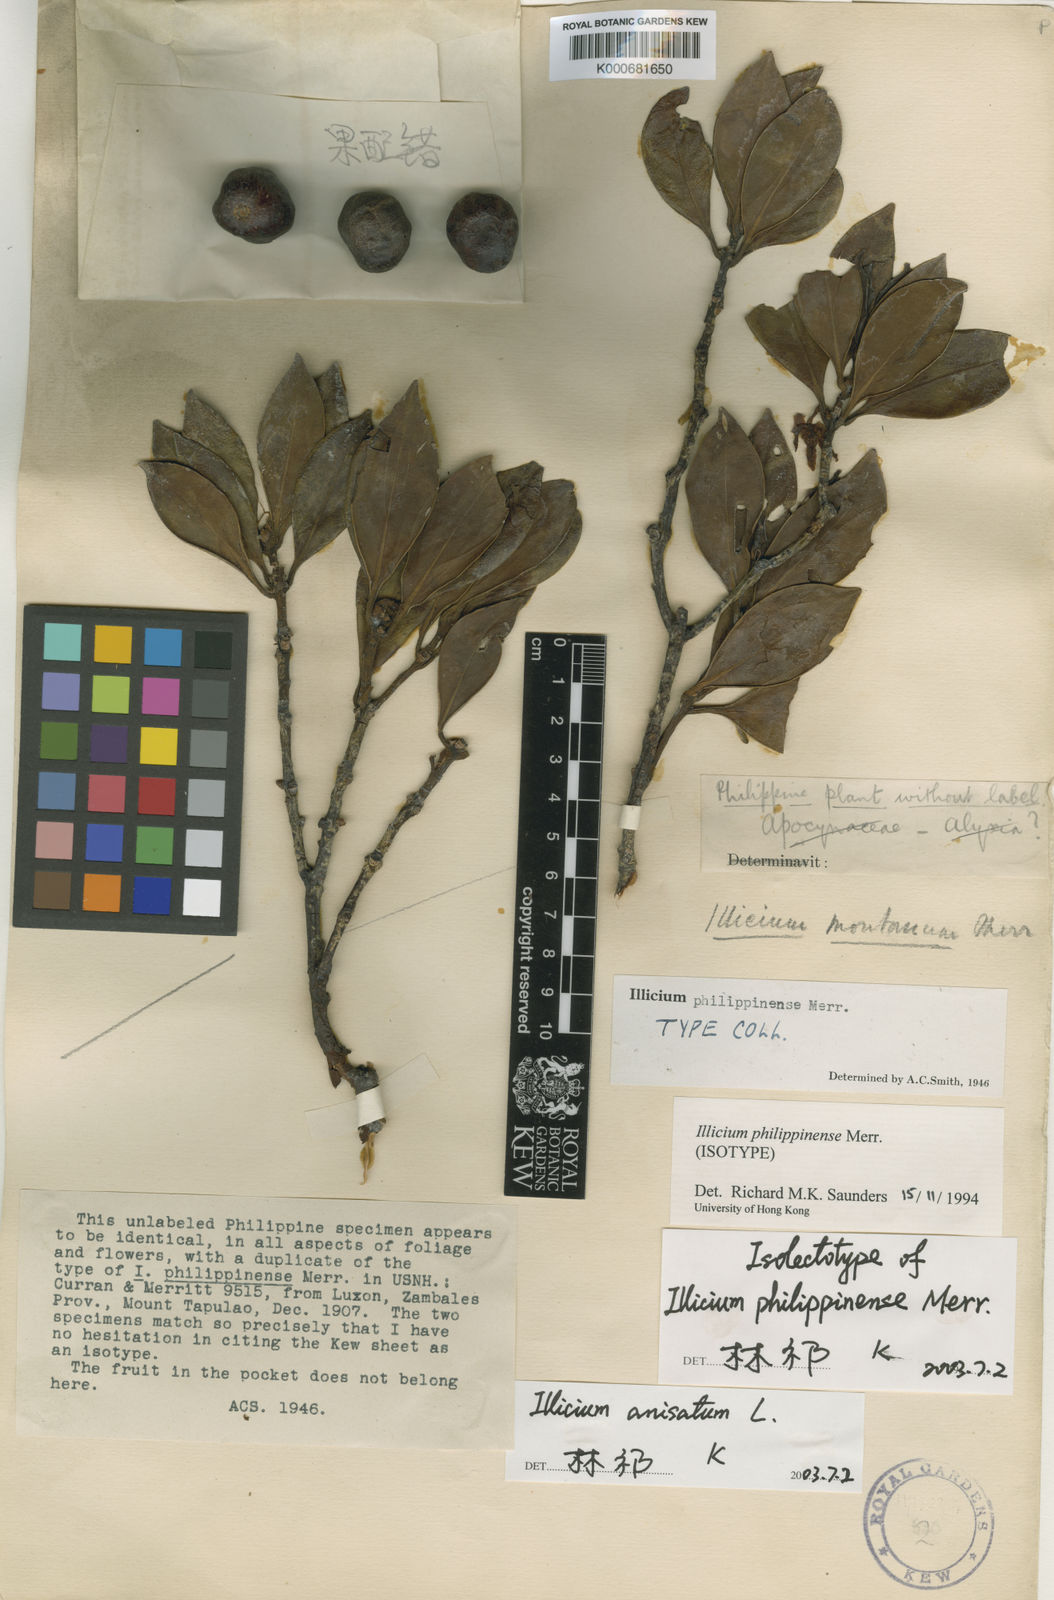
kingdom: Plantae
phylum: Tracheophyta
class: Magnoliopsida
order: Austrobaileyales
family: Schisandraceae
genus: Illicium
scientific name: Illicium philippinense
